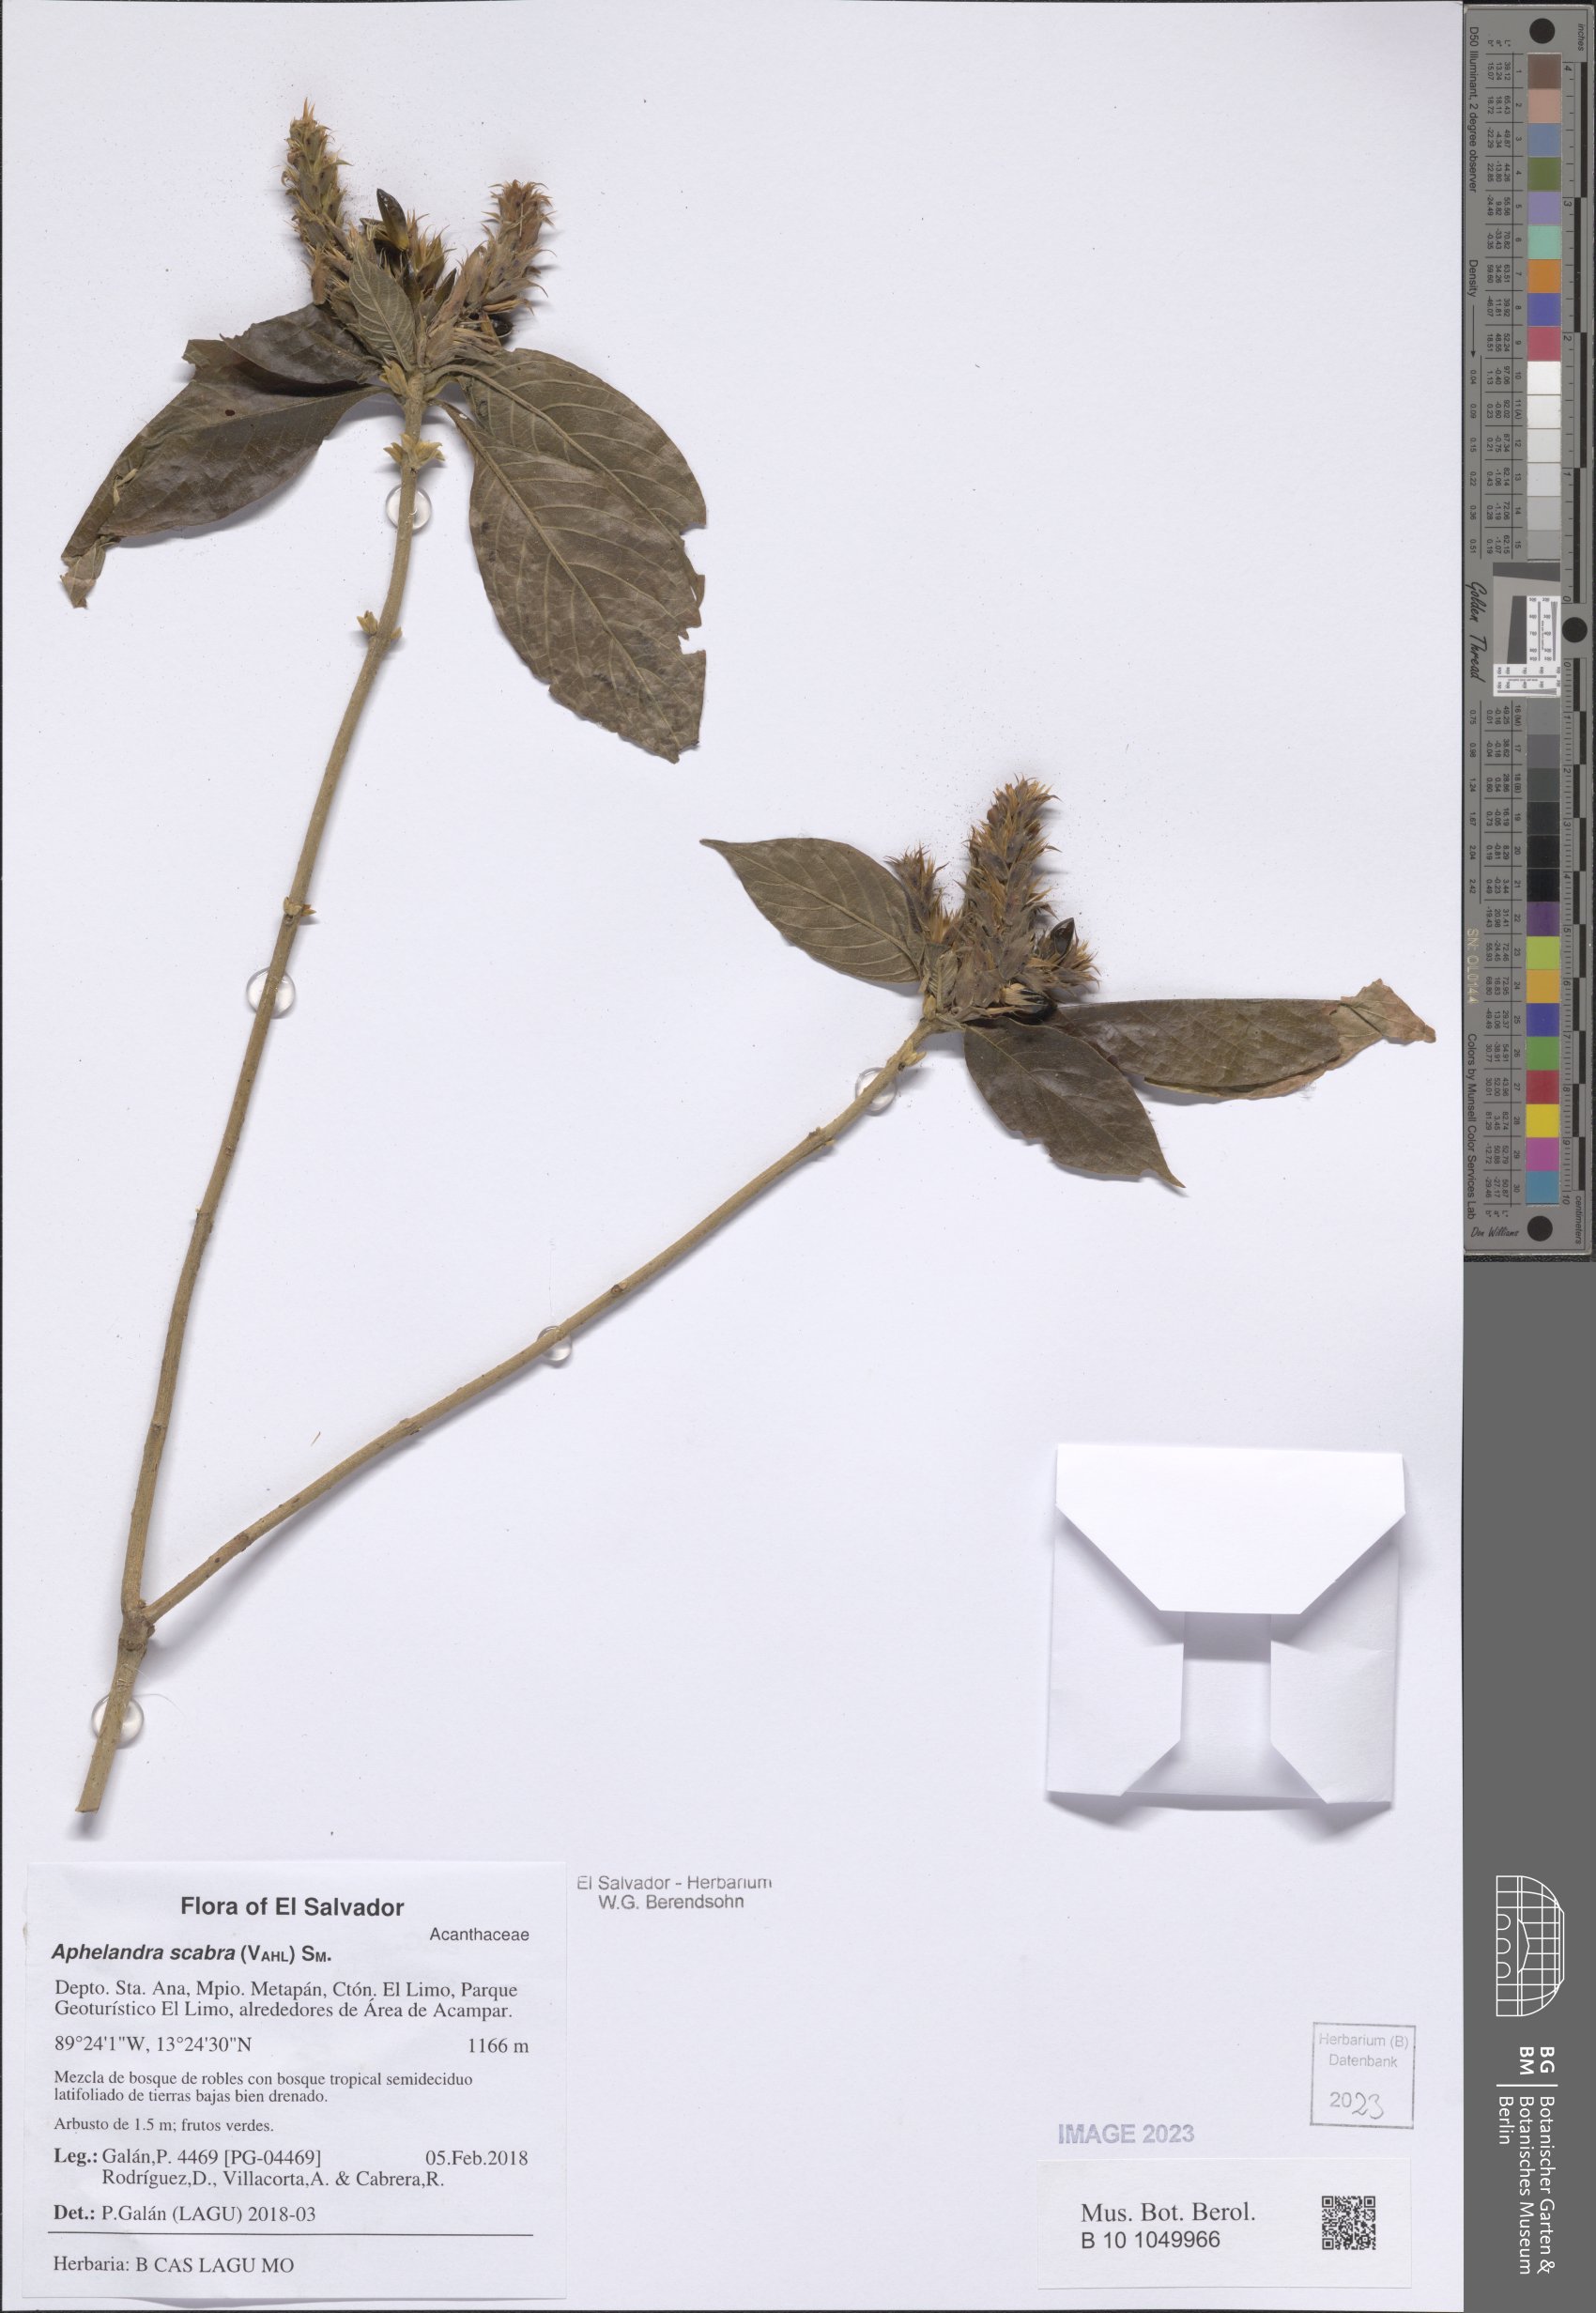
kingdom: Plantae
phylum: Tracheophyta
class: Magnoliopsida
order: Lamiales
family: Acanthaceae
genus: Aphelandra
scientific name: Aphelandra scabra
